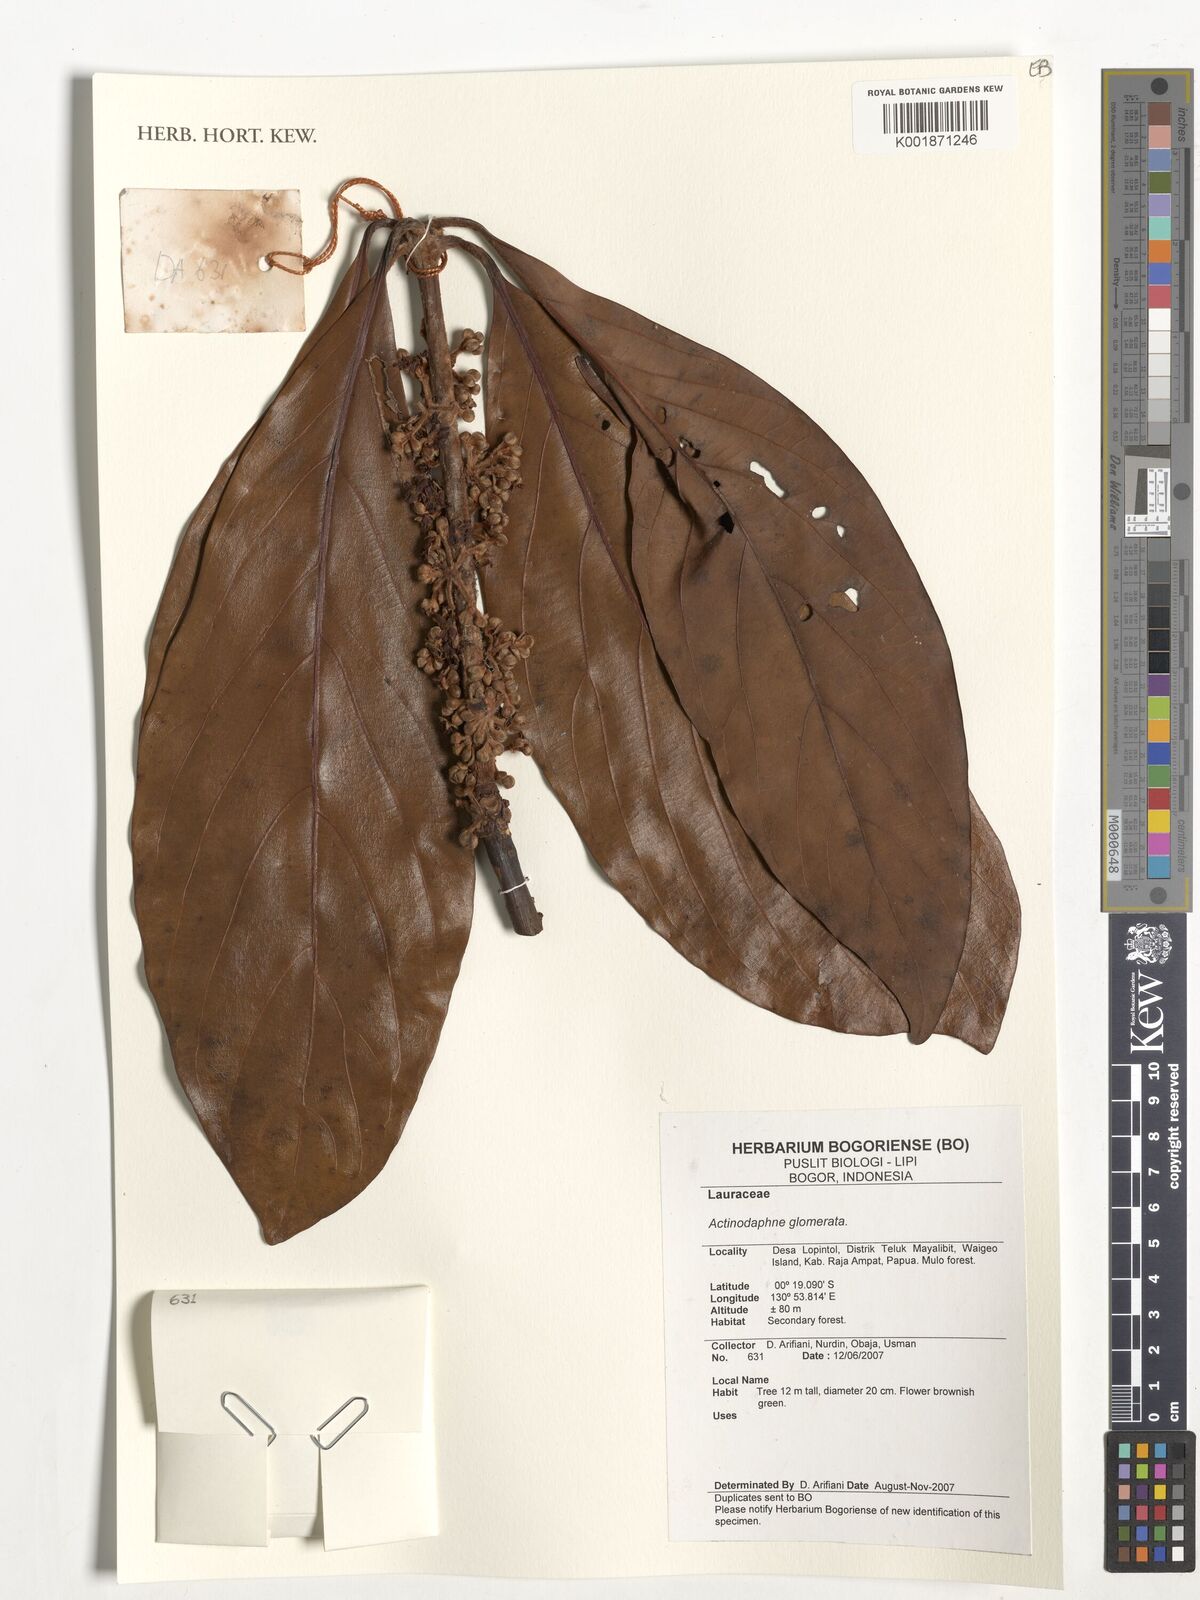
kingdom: Plantae
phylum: Tracheophyta
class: Magnoliopsida
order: Laurales
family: Lauraceae
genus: Actinodaphne
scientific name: Actinodaphne glomerata
